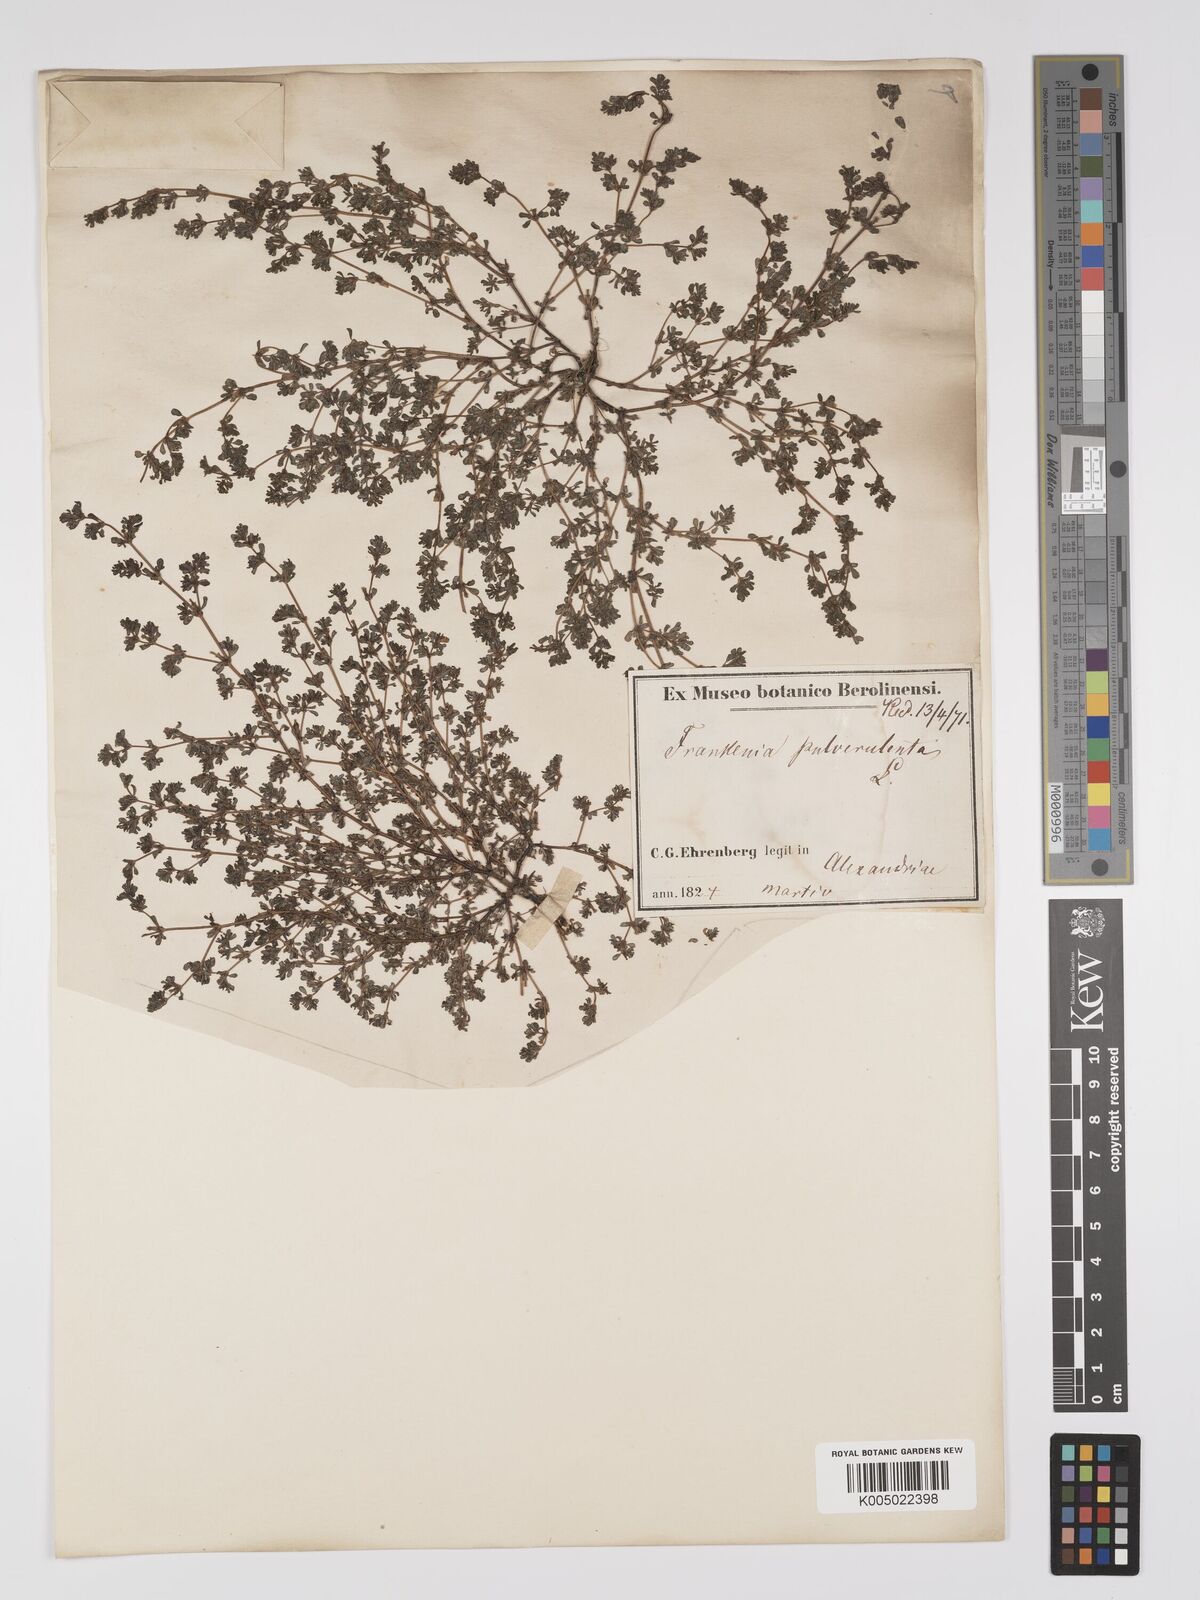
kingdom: Plantae
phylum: Tracheophyta
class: Magnoliopsida
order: Caryophyllales
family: Frankeniaceae
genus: Frankenia
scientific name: Frankenia pulverulenta
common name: European seaheath
